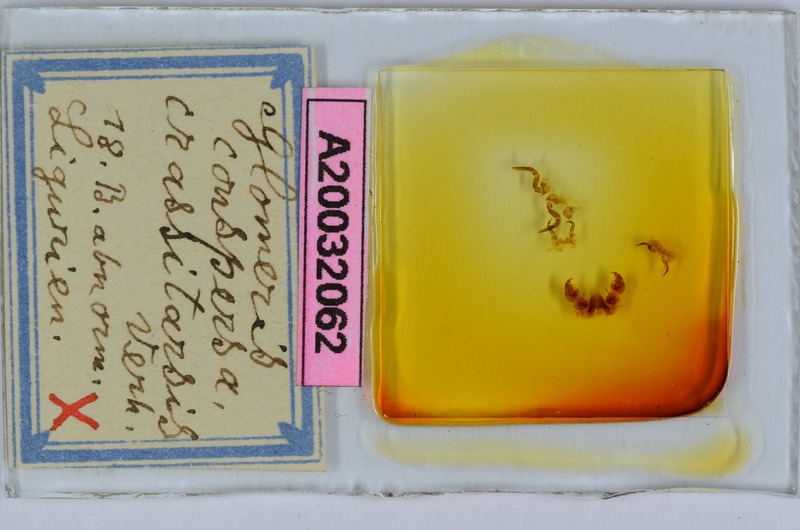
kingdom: Animalia
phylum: Arthropoda
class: Diplopoda
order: Glomerida
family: Glomeridae
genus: Glomeris
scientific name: Glomeris conspersa
